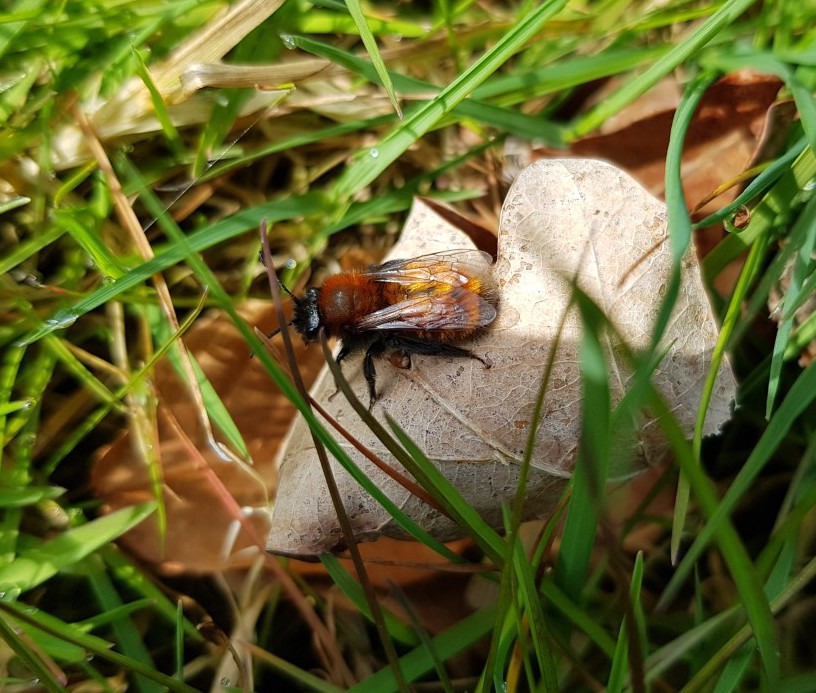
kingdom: Animalia
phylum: Arthropoda
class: Insecta
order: Hymenoptera
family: Andrenidae
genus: Andrena
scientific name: Andrena fulva
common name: Rødpelset jordbi
